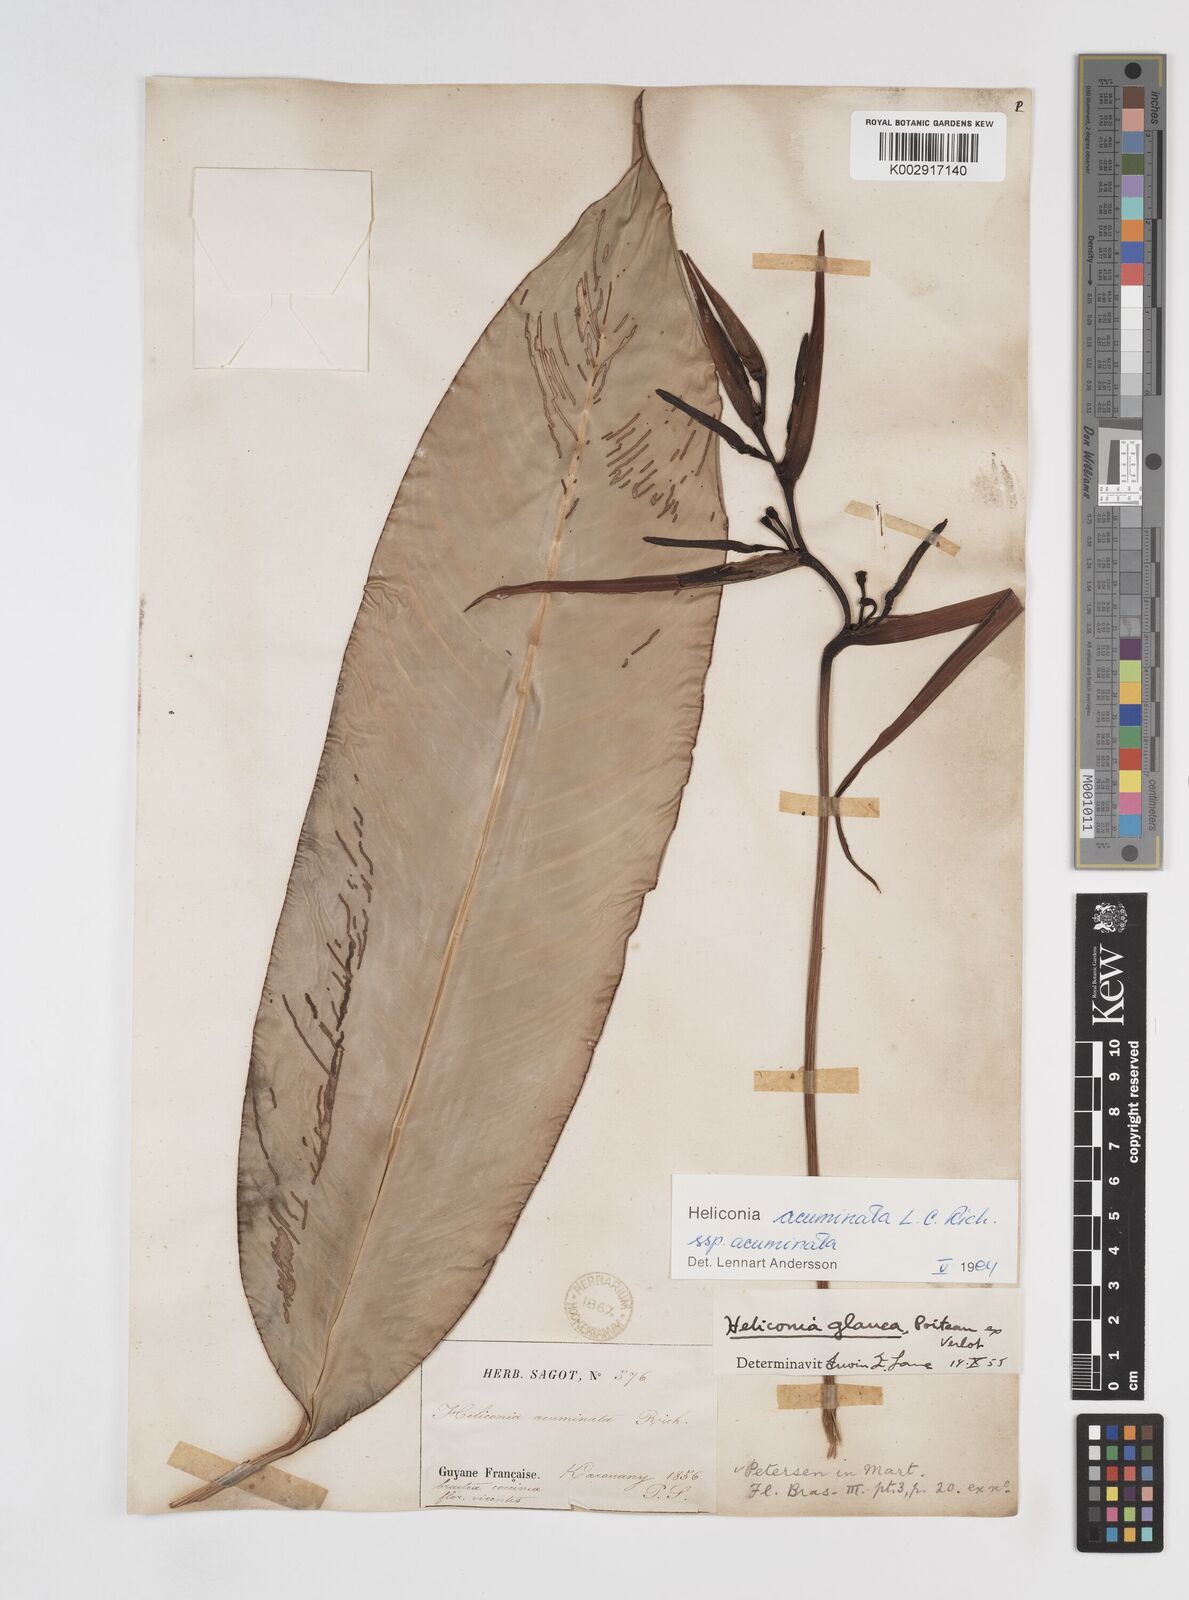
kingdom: Plantae
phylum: Tracheophyta
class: Liliopsida
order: Zingiberales
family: Heliconiaceae
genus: Heliconia
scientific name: Heliconia acuminata
